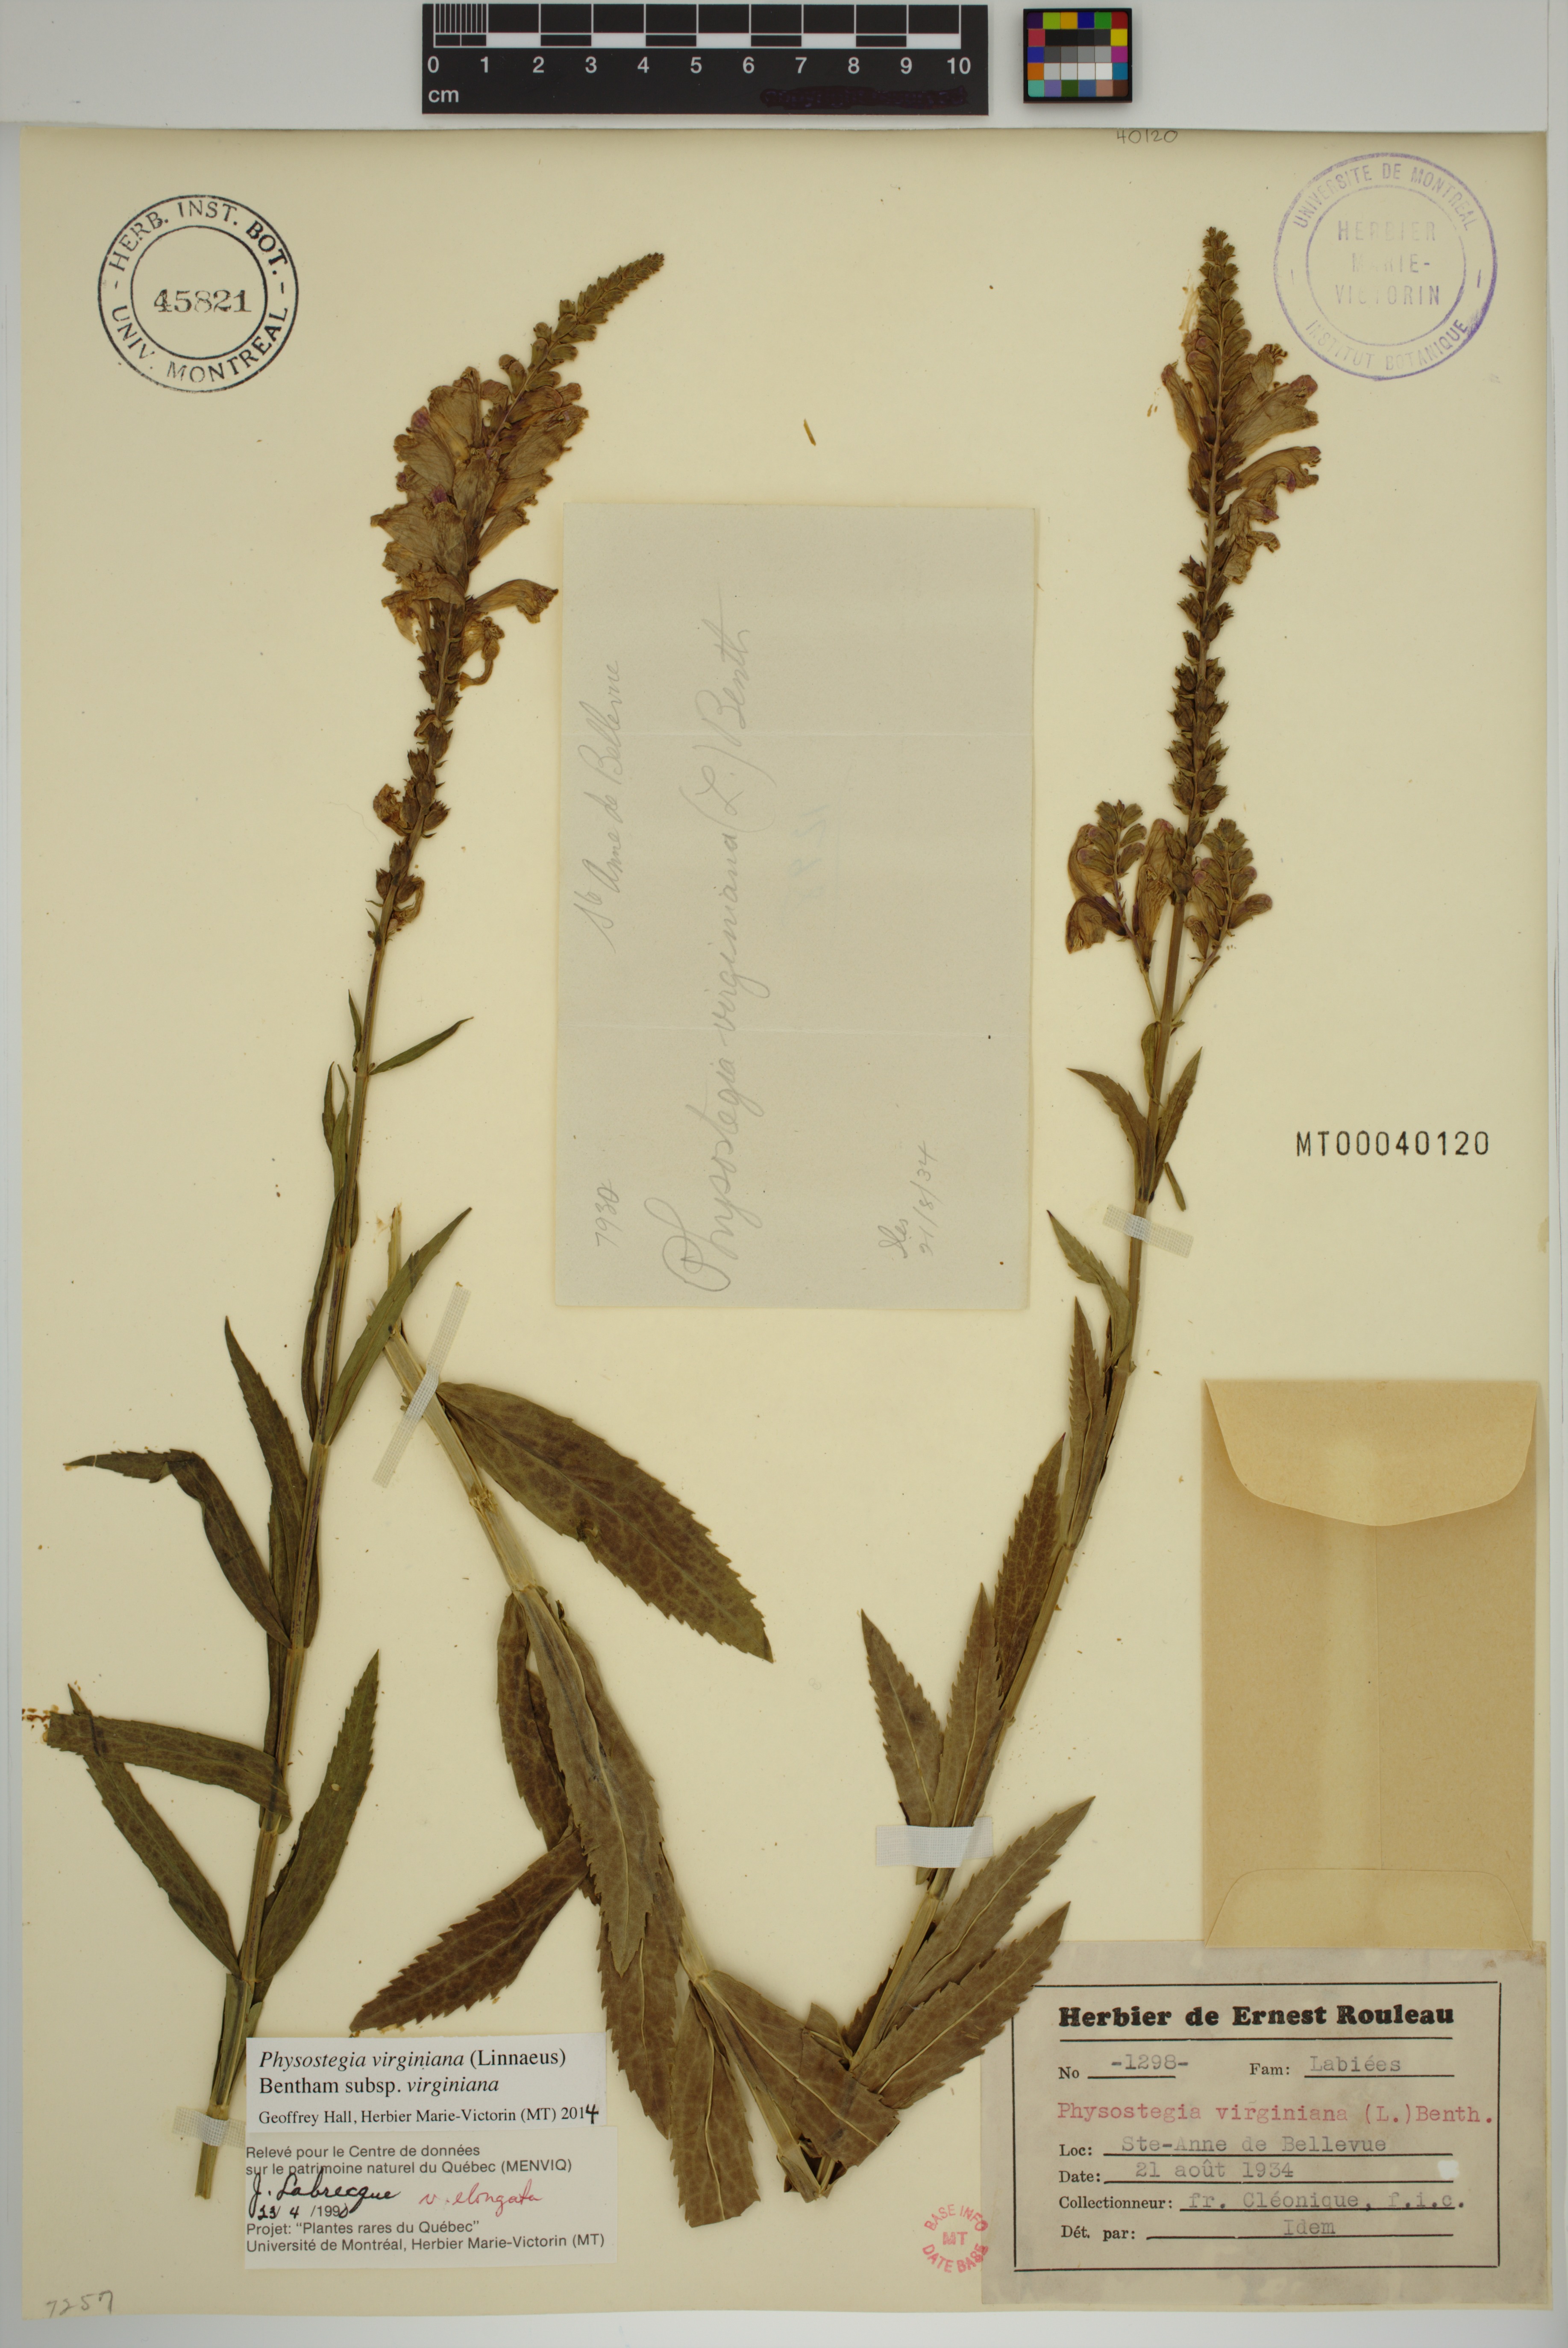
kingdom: Plantae
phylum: Tracheophyta
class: Magnoliopsida
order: Lamiales
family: Lamiaceae
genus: Physostegia
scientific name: Physostegia virginiana
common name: Obedient-plant
